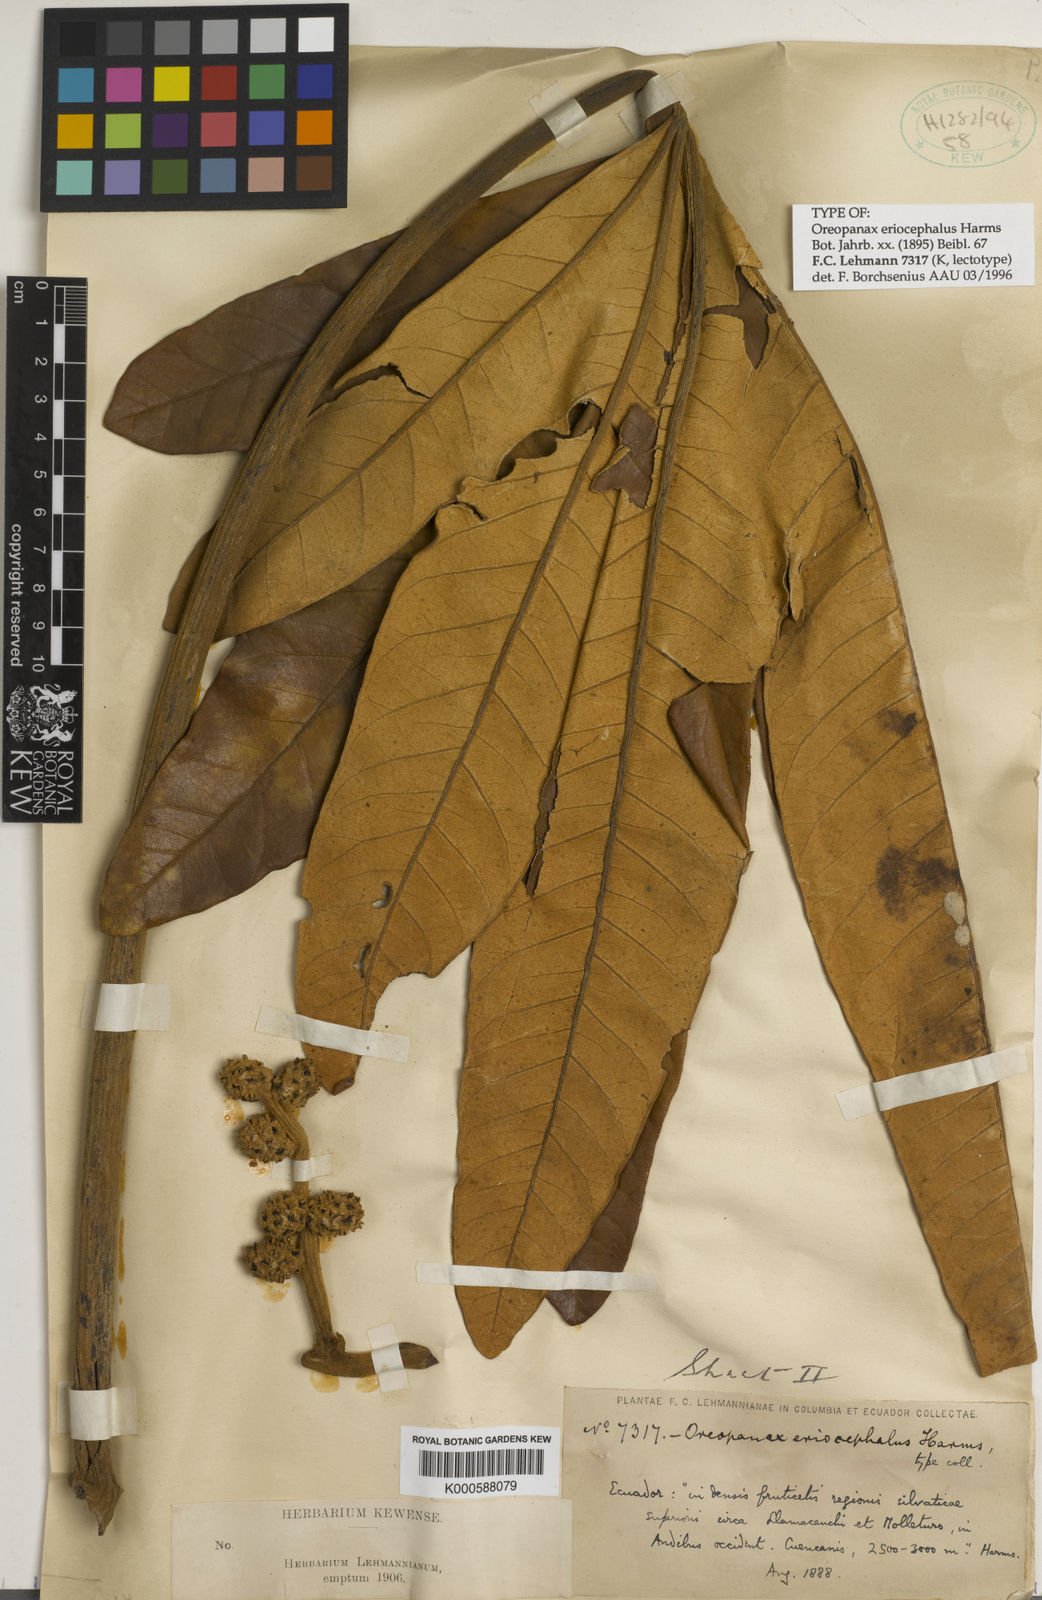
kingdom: Plantae
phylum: Tracheophyta
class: Magnoliopsida
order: Apiales
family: Araliaceae
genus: Oreopanax
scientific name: Oreopanax eriocephalus
